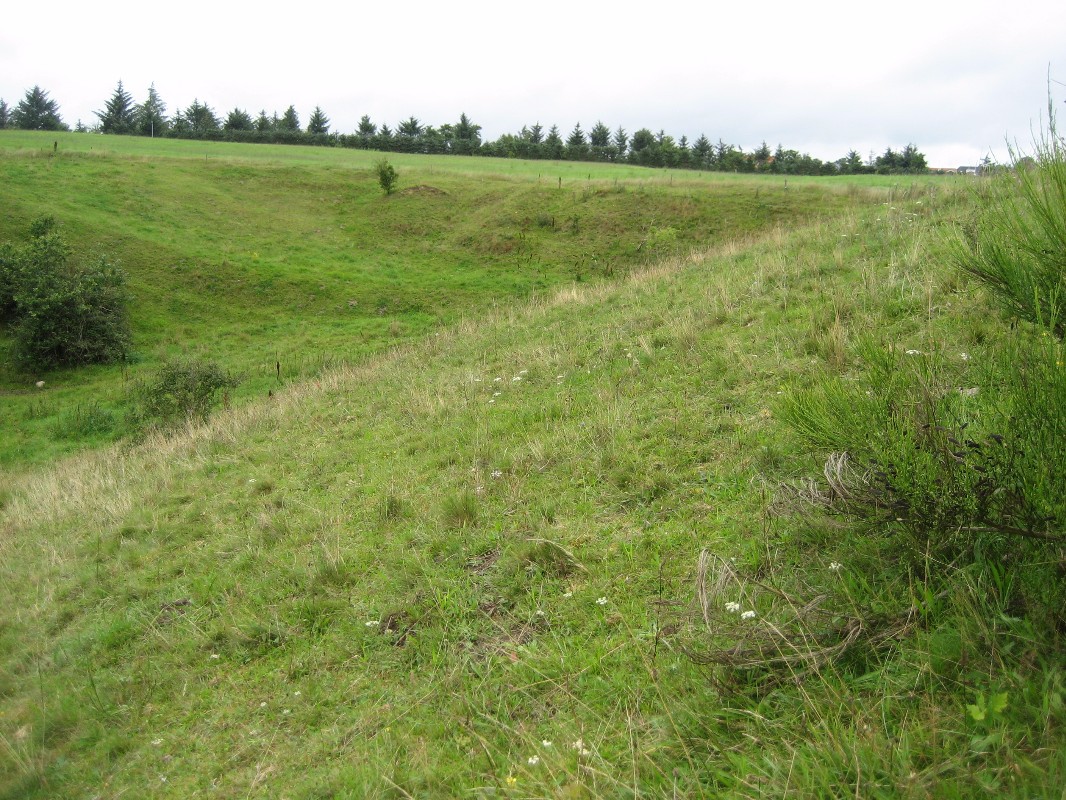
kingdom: Fungi
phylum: Basidiomycota
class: Agaricomycetes
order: Agaricales
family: Clavariaceae
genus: Clavaria
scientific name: Clavaria zollingeri
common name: purpur-køllesvamp
